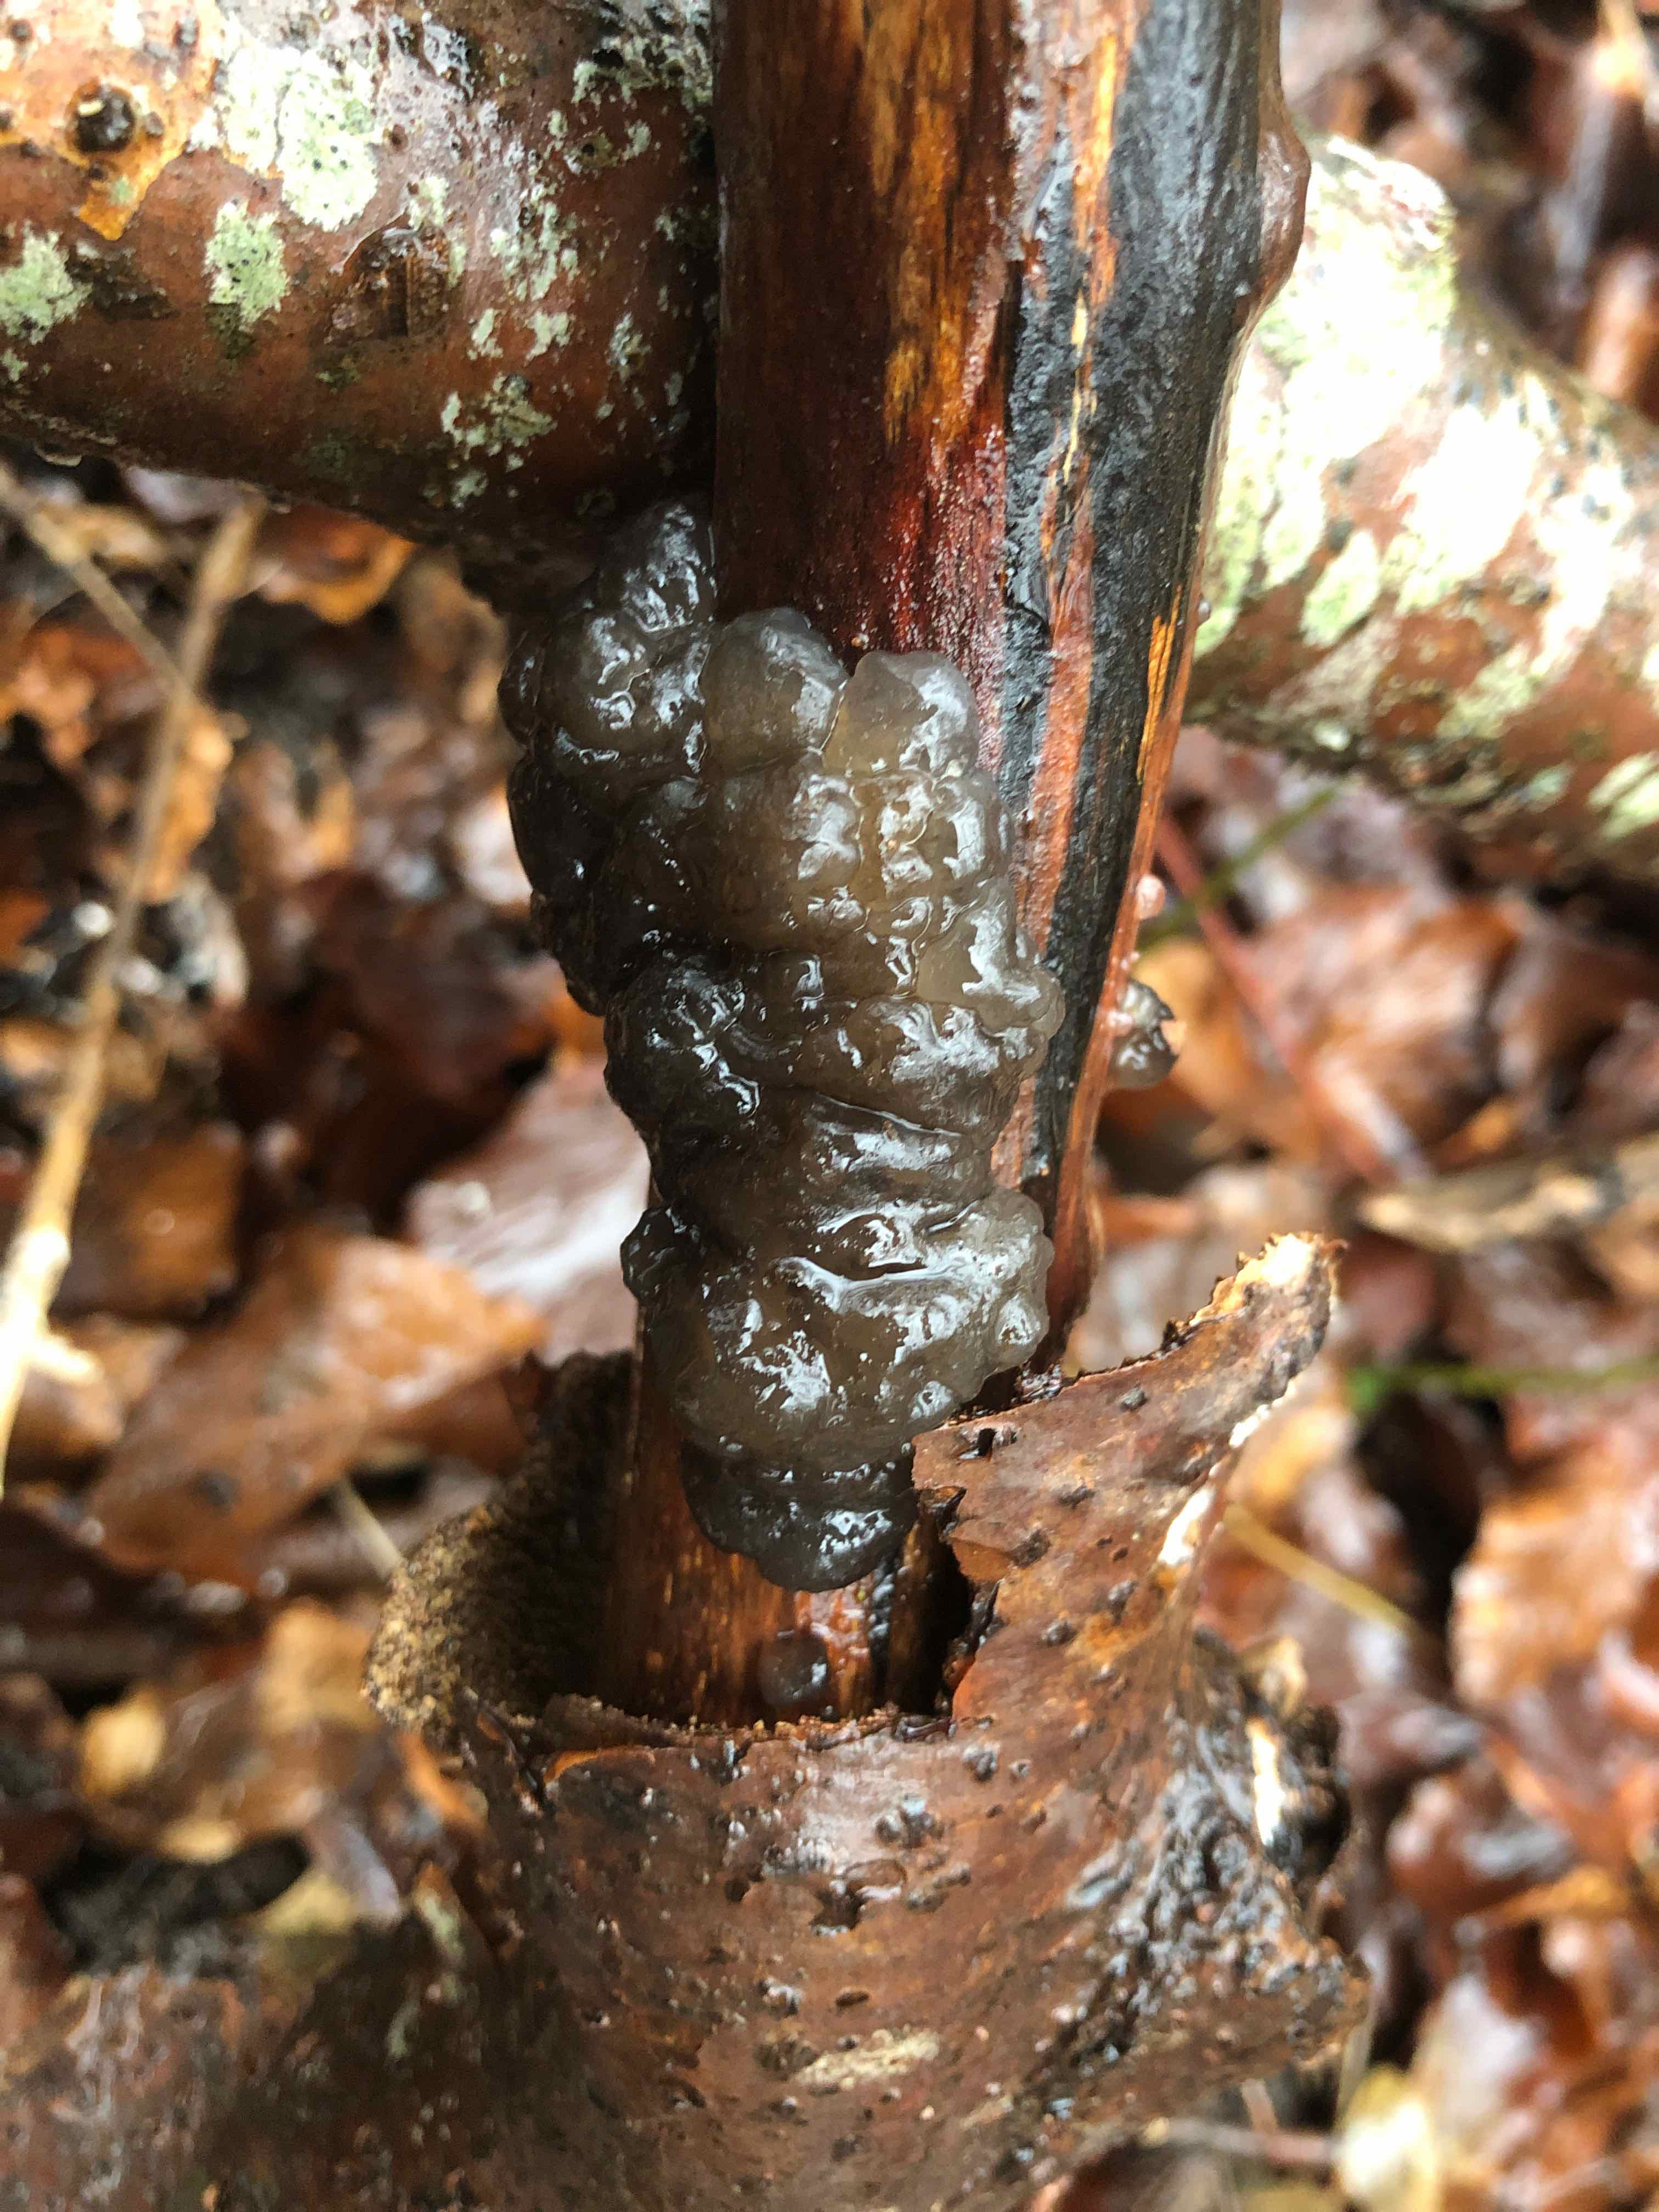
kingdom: Fungi
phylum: Basidiomycota
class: Agaricomycetes
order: Auriculariales
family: Auriculariaceae
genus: Exidia
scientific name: Exidia nigricans
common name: almindelig bævretop
